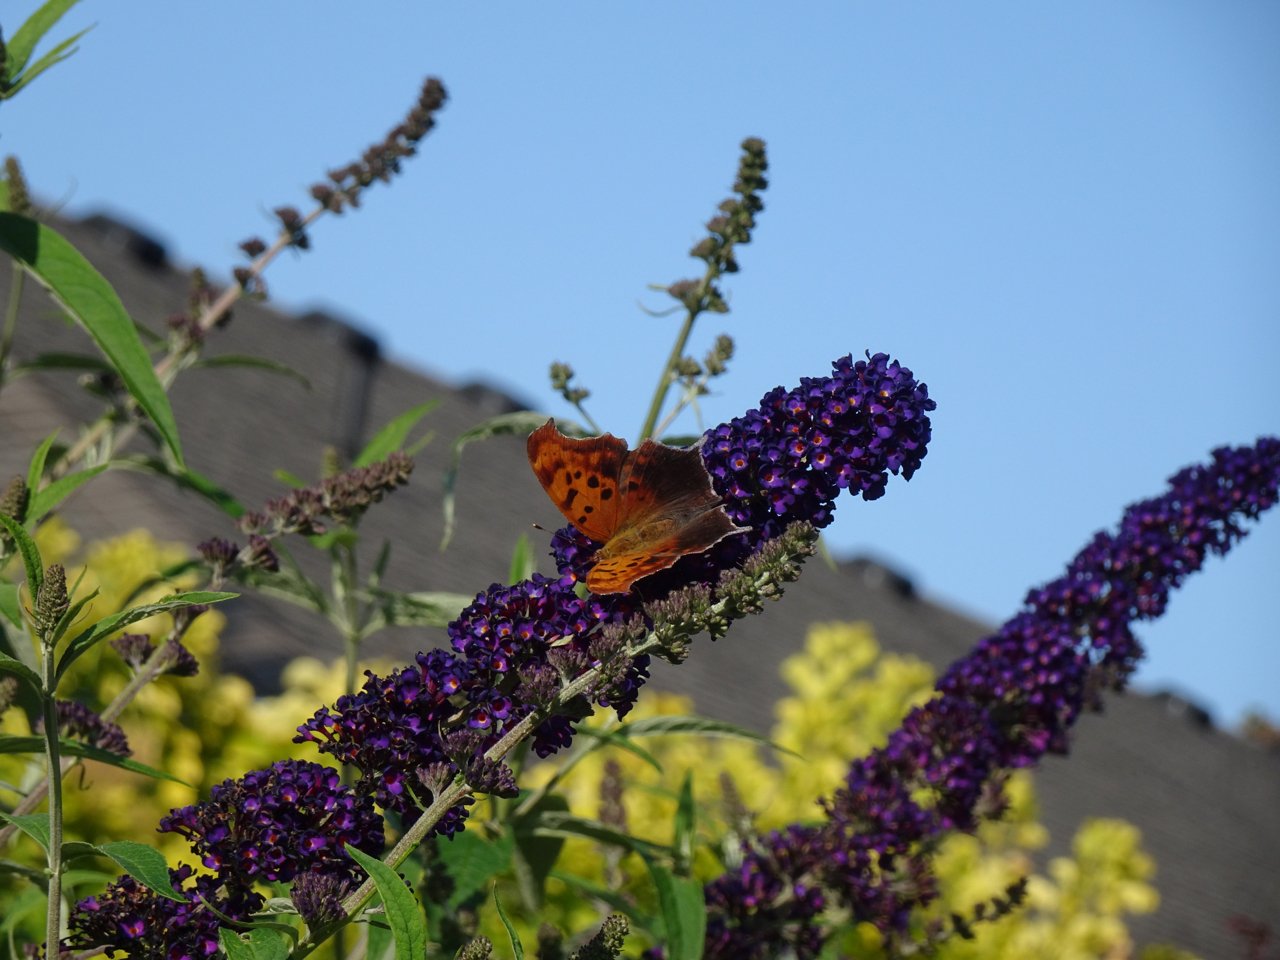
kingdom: Animalia
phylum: Arthropoda
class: Insecta
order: Lepidoptera
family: Nymphalidae
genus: Polygonia
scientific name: Polygonia interrogationis
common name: Question Mark
